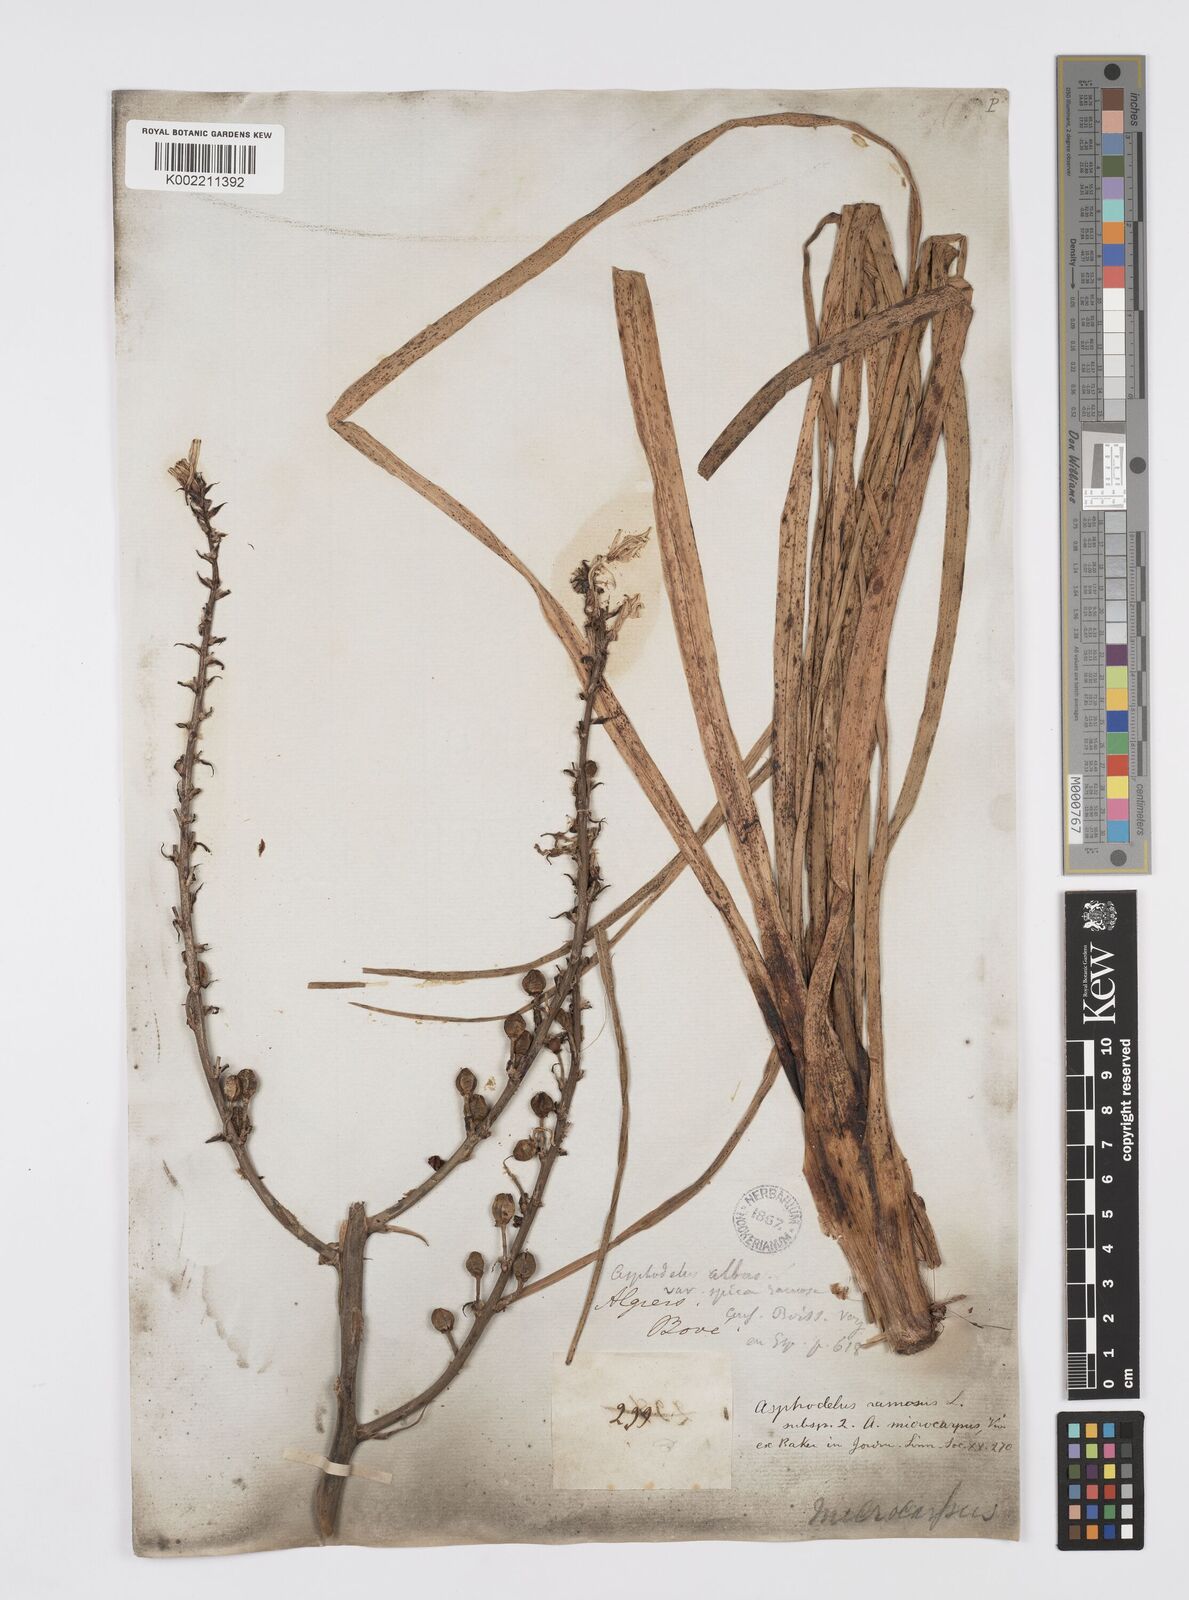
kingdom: Plantae
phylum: Tracheophyta
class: Liliopsida
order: Asparagales
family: Asphodelaceae
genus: Asphodelus
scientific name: Asphodelus ramosus
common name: Silverrod
